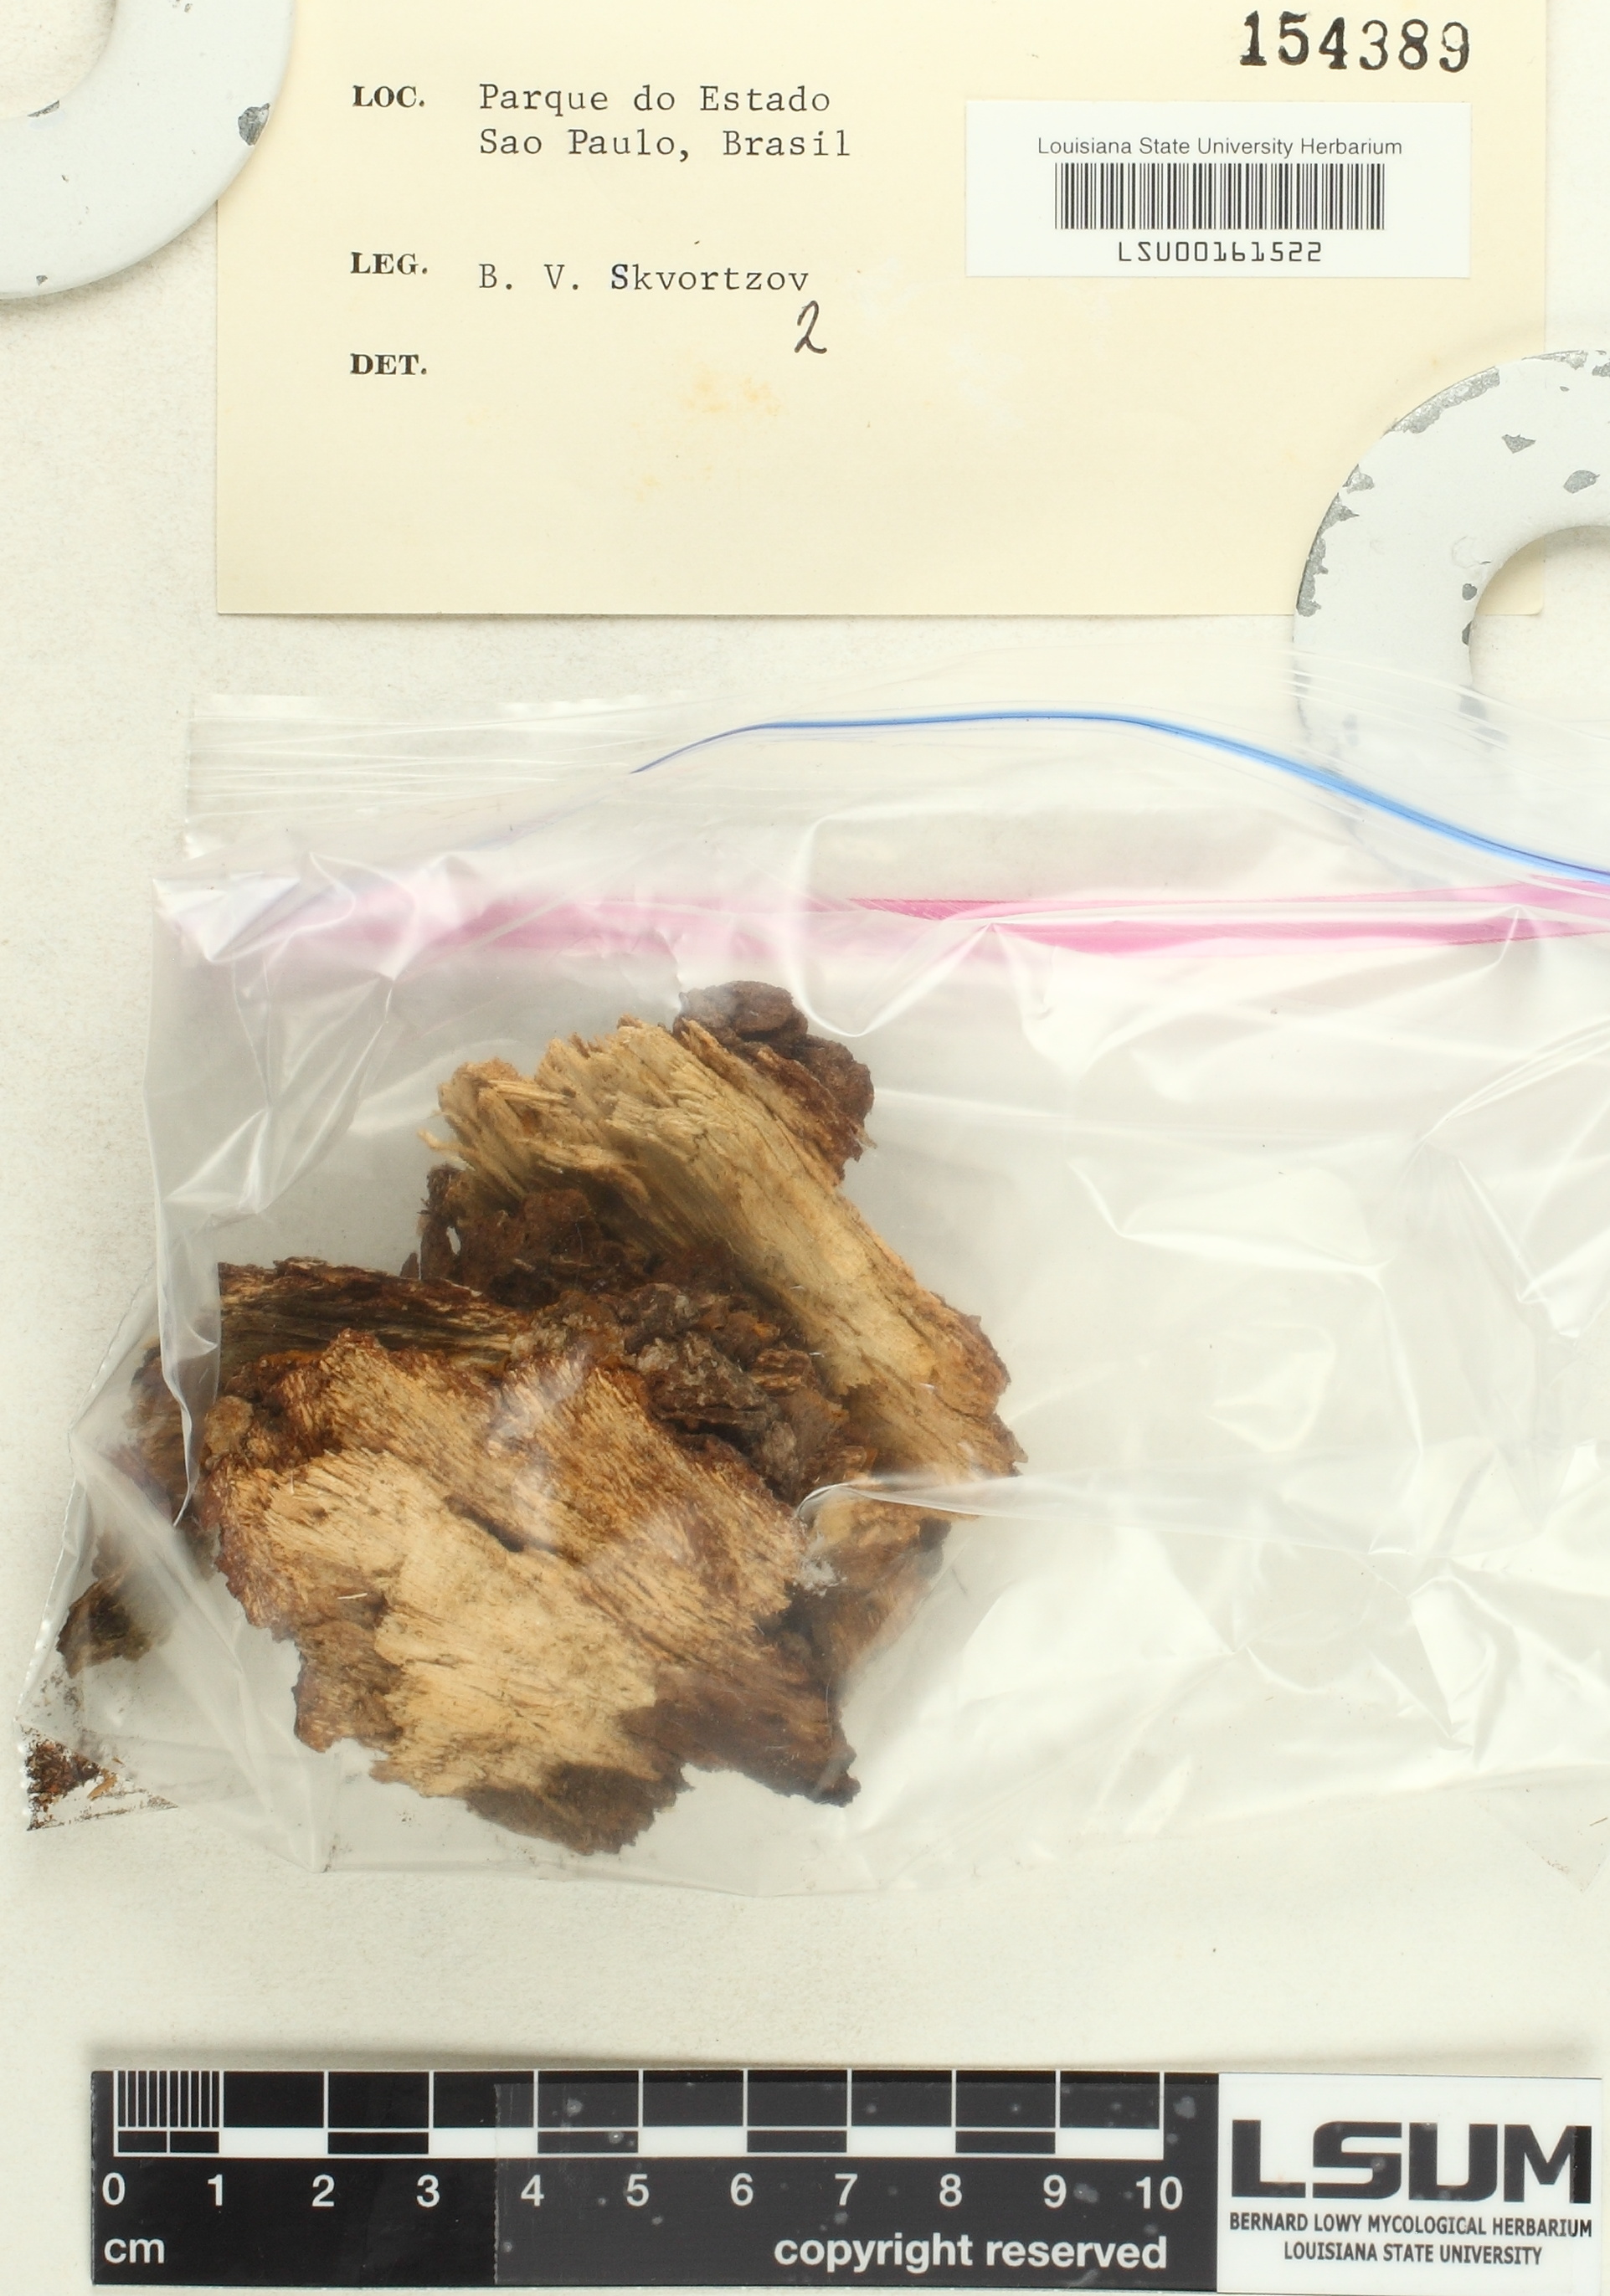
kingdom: Fungi
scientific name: Fungi
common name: Fungi
